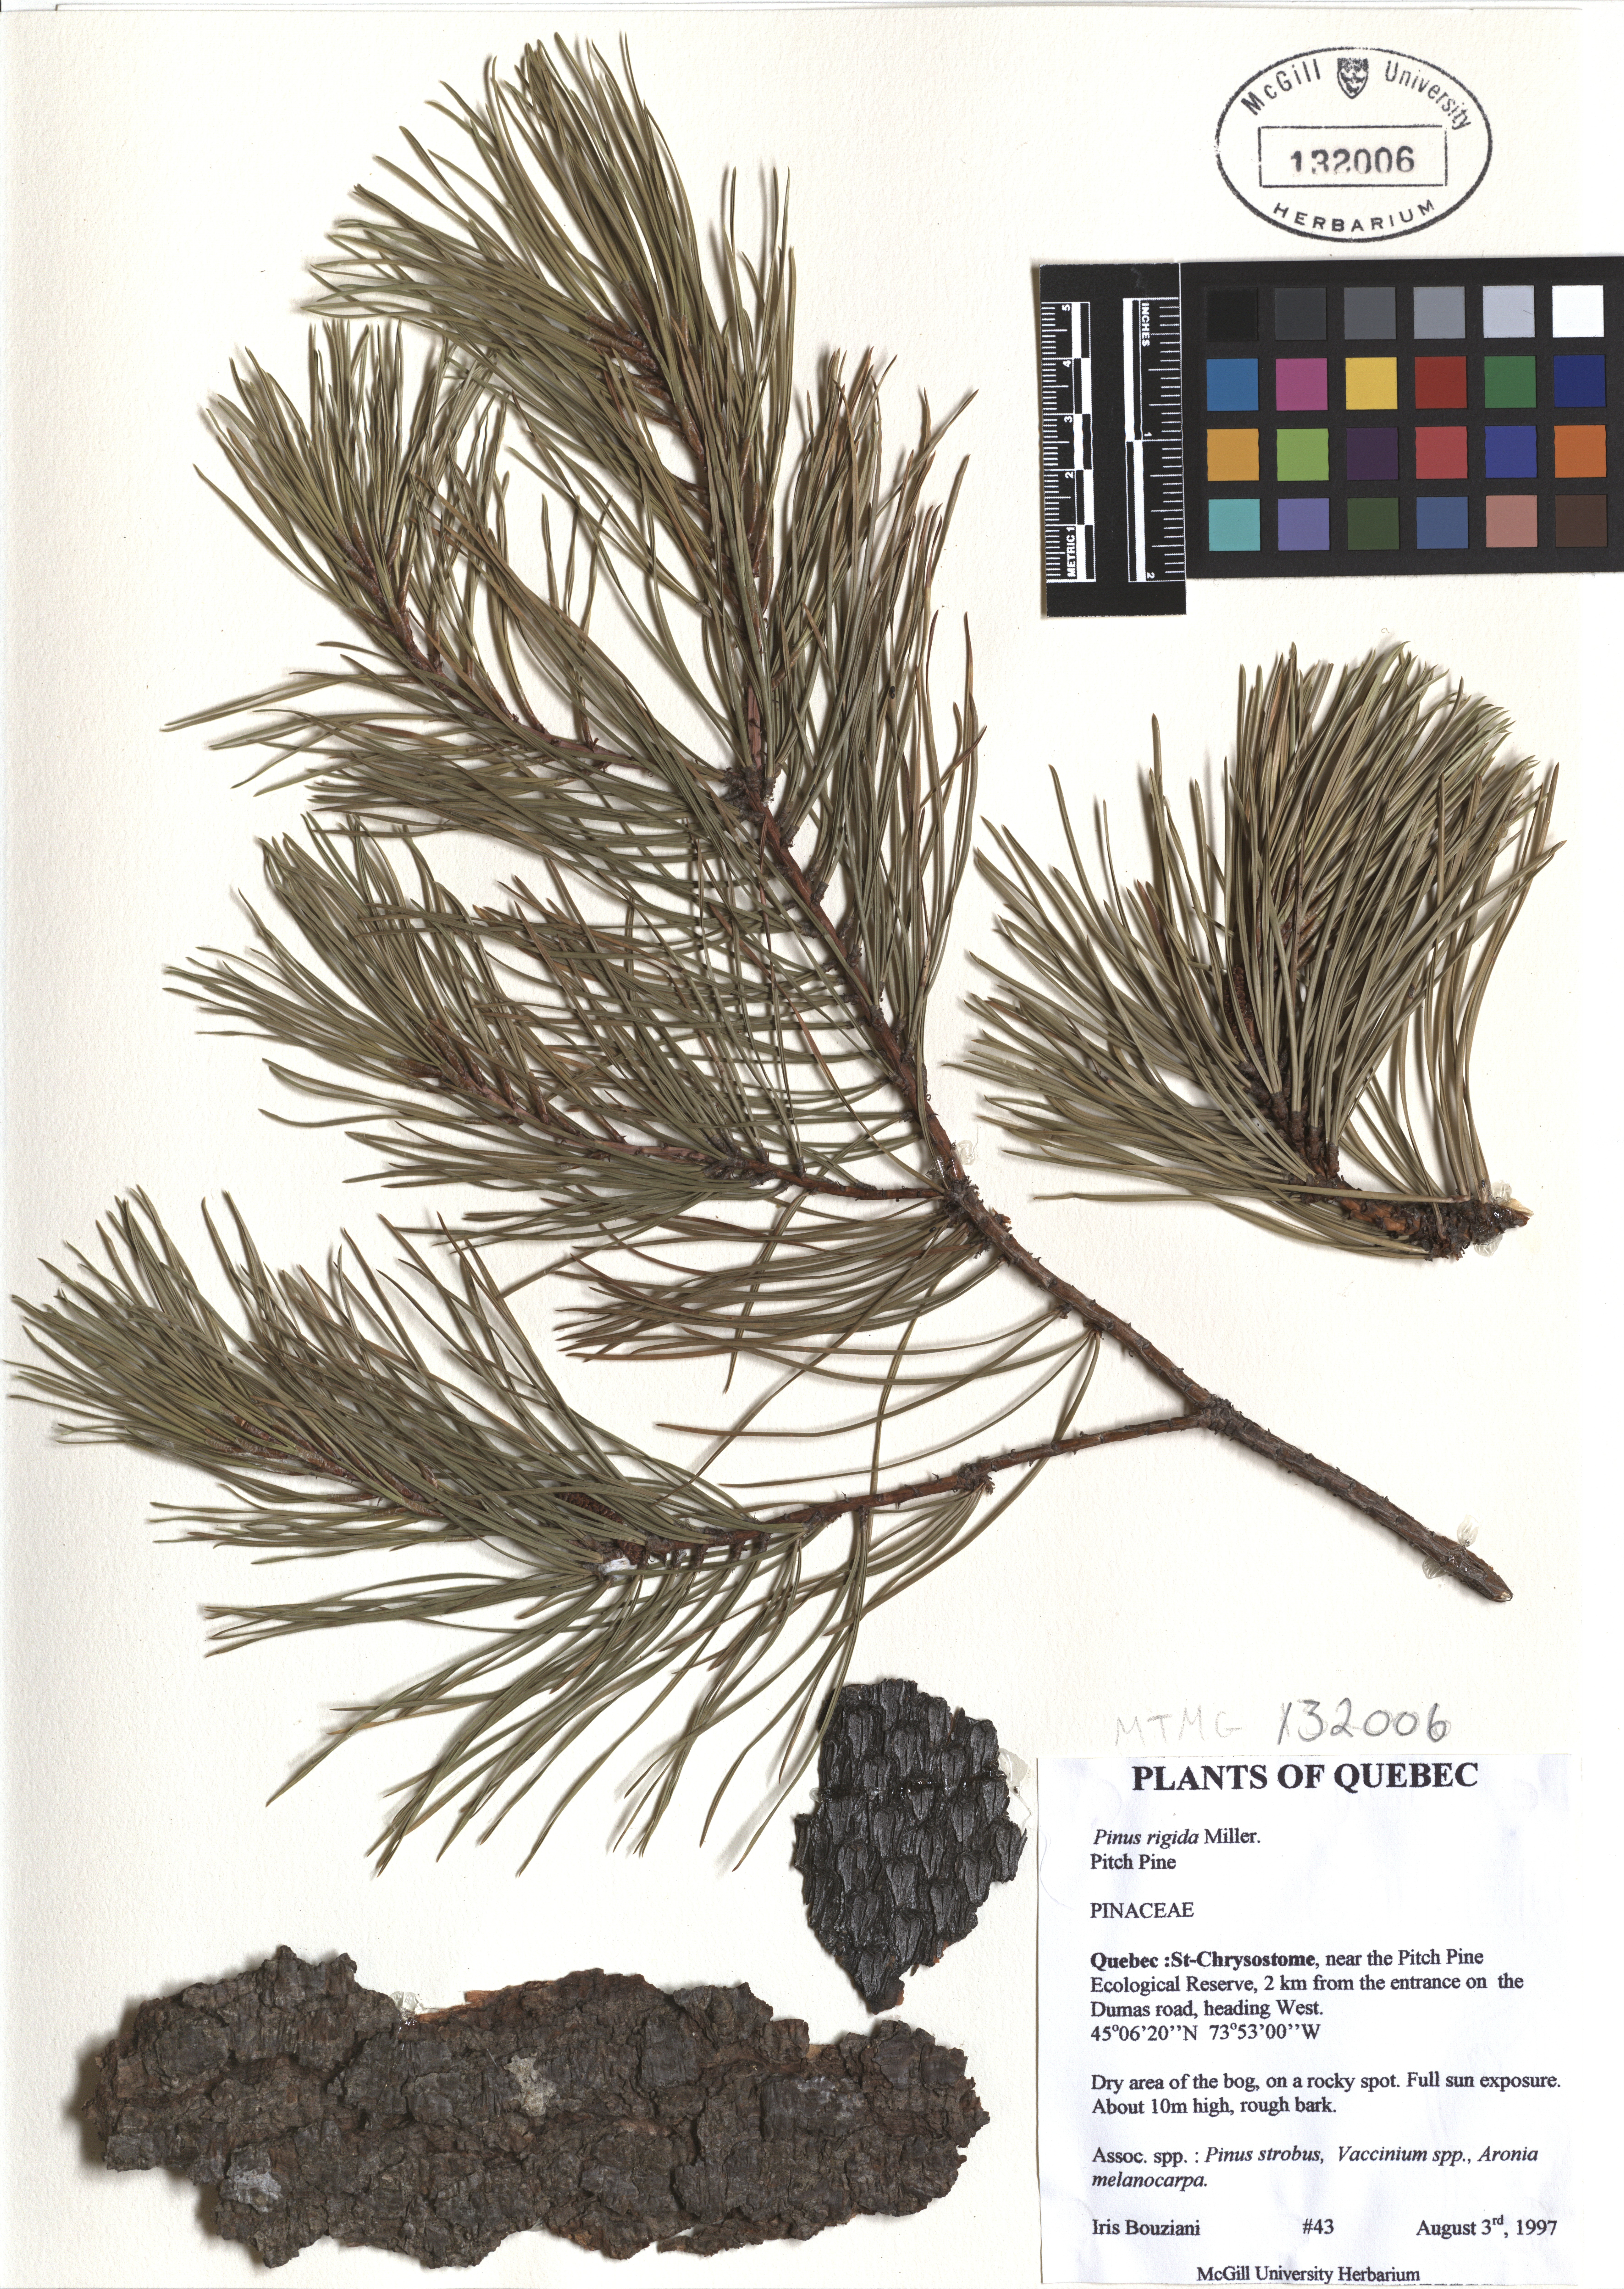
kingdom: Plantae
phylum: Tracheophyta
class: Pinopsida
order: Pinales
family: Pinaceae
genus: Pinus
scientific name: Pinus rigida
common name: Pitch pine
